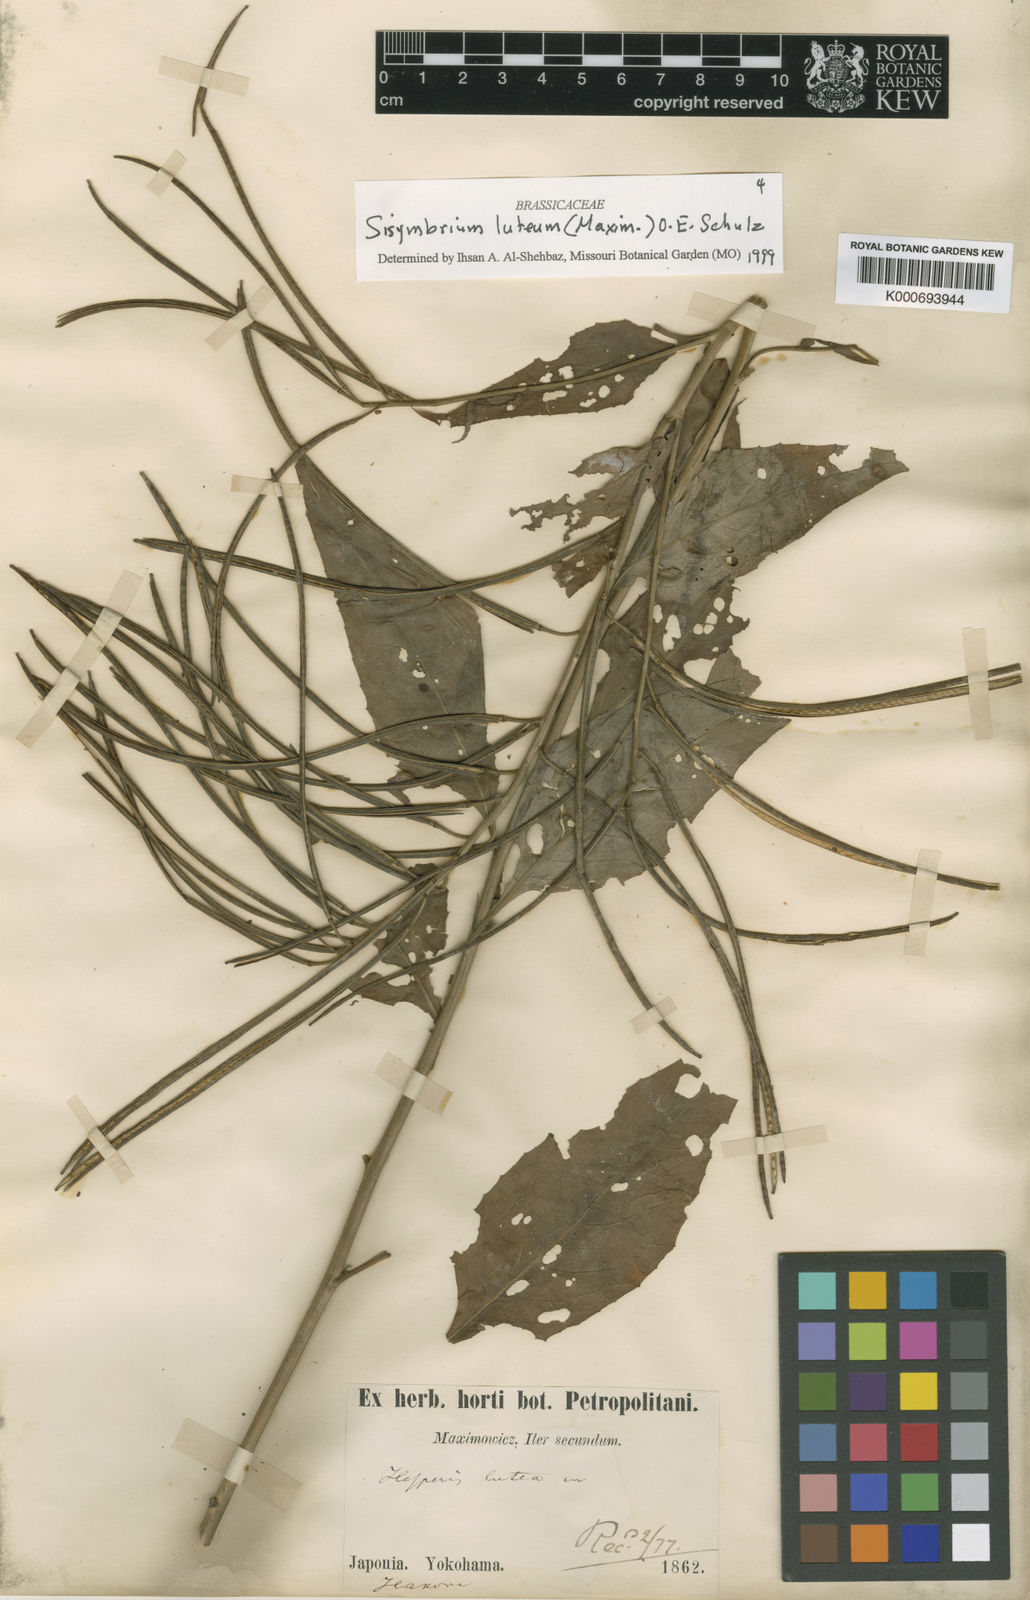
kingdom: Plantae
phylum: Tracheophyta
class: Magnoliopsida
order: Brassicales
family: Brassicaceae
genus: Sisymbrium
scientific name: Sisymbrium luteum
